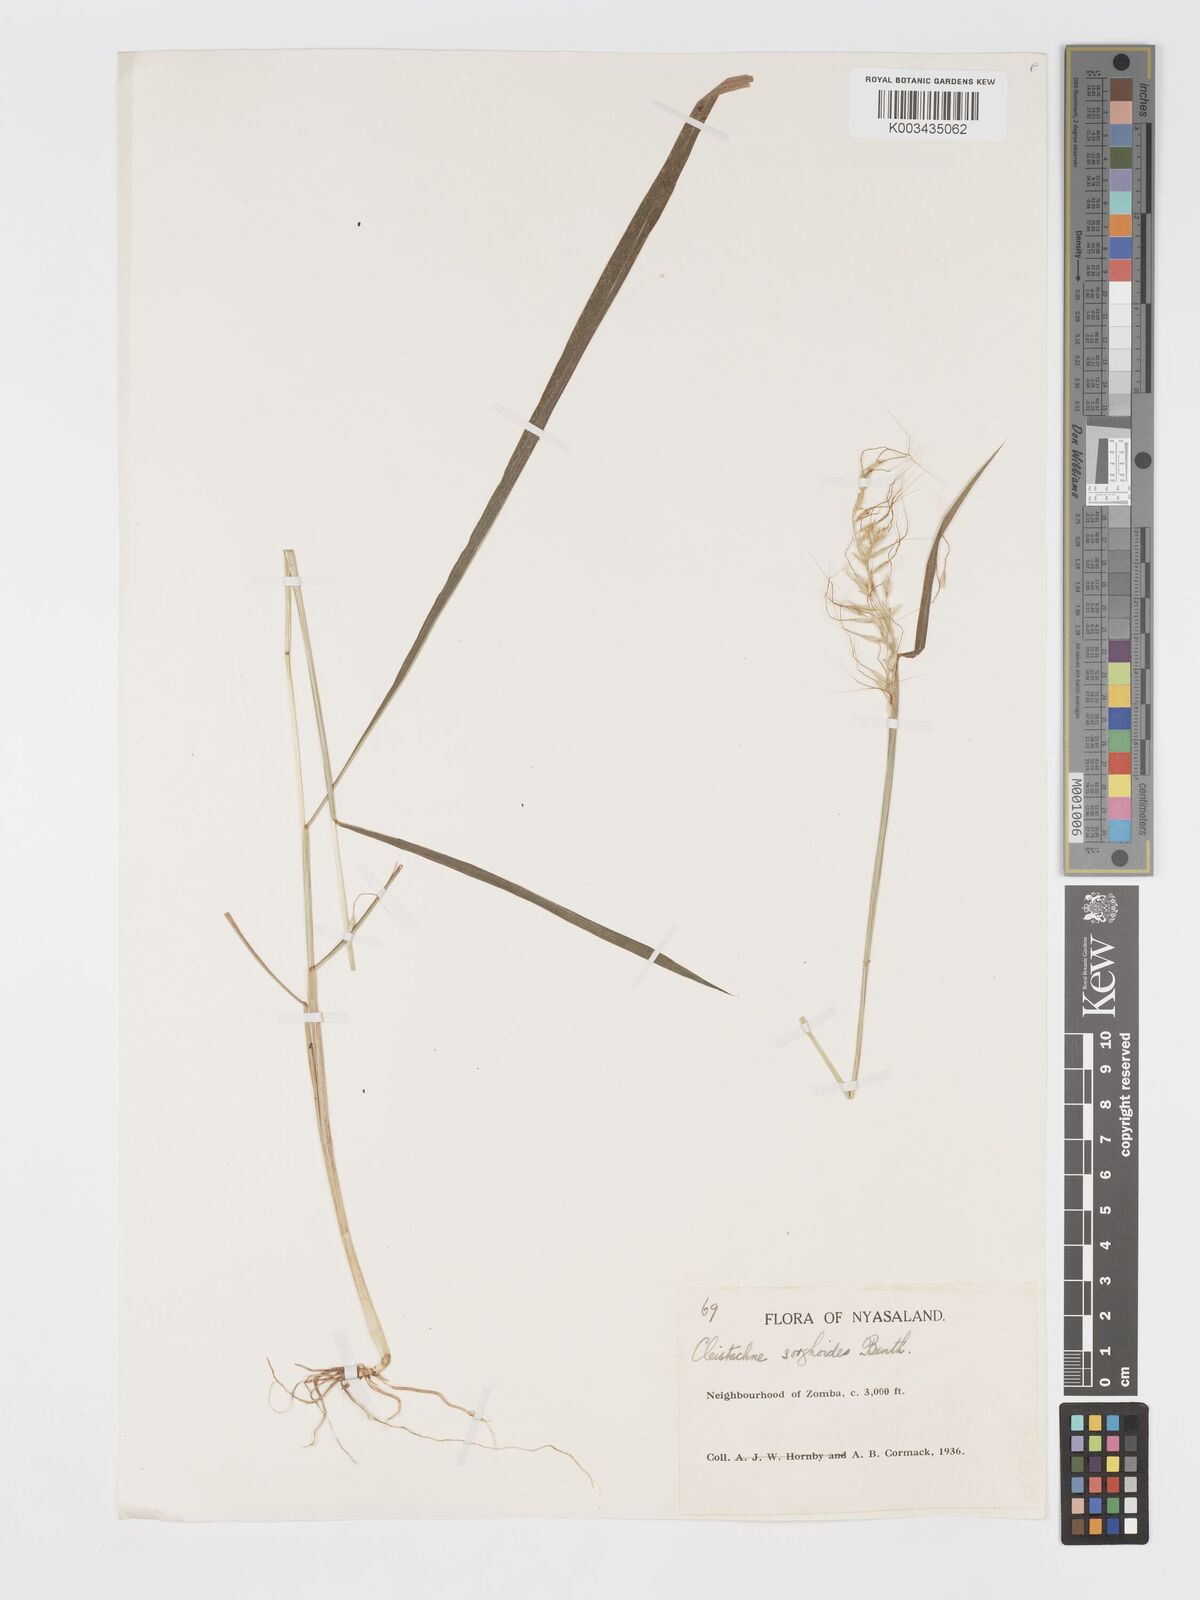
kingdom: Plantae
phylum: Tracheophyta
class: Liliopsida
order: Poales
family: Poaceae
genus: Cleistachne
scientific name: Cleistachne sorghoides
